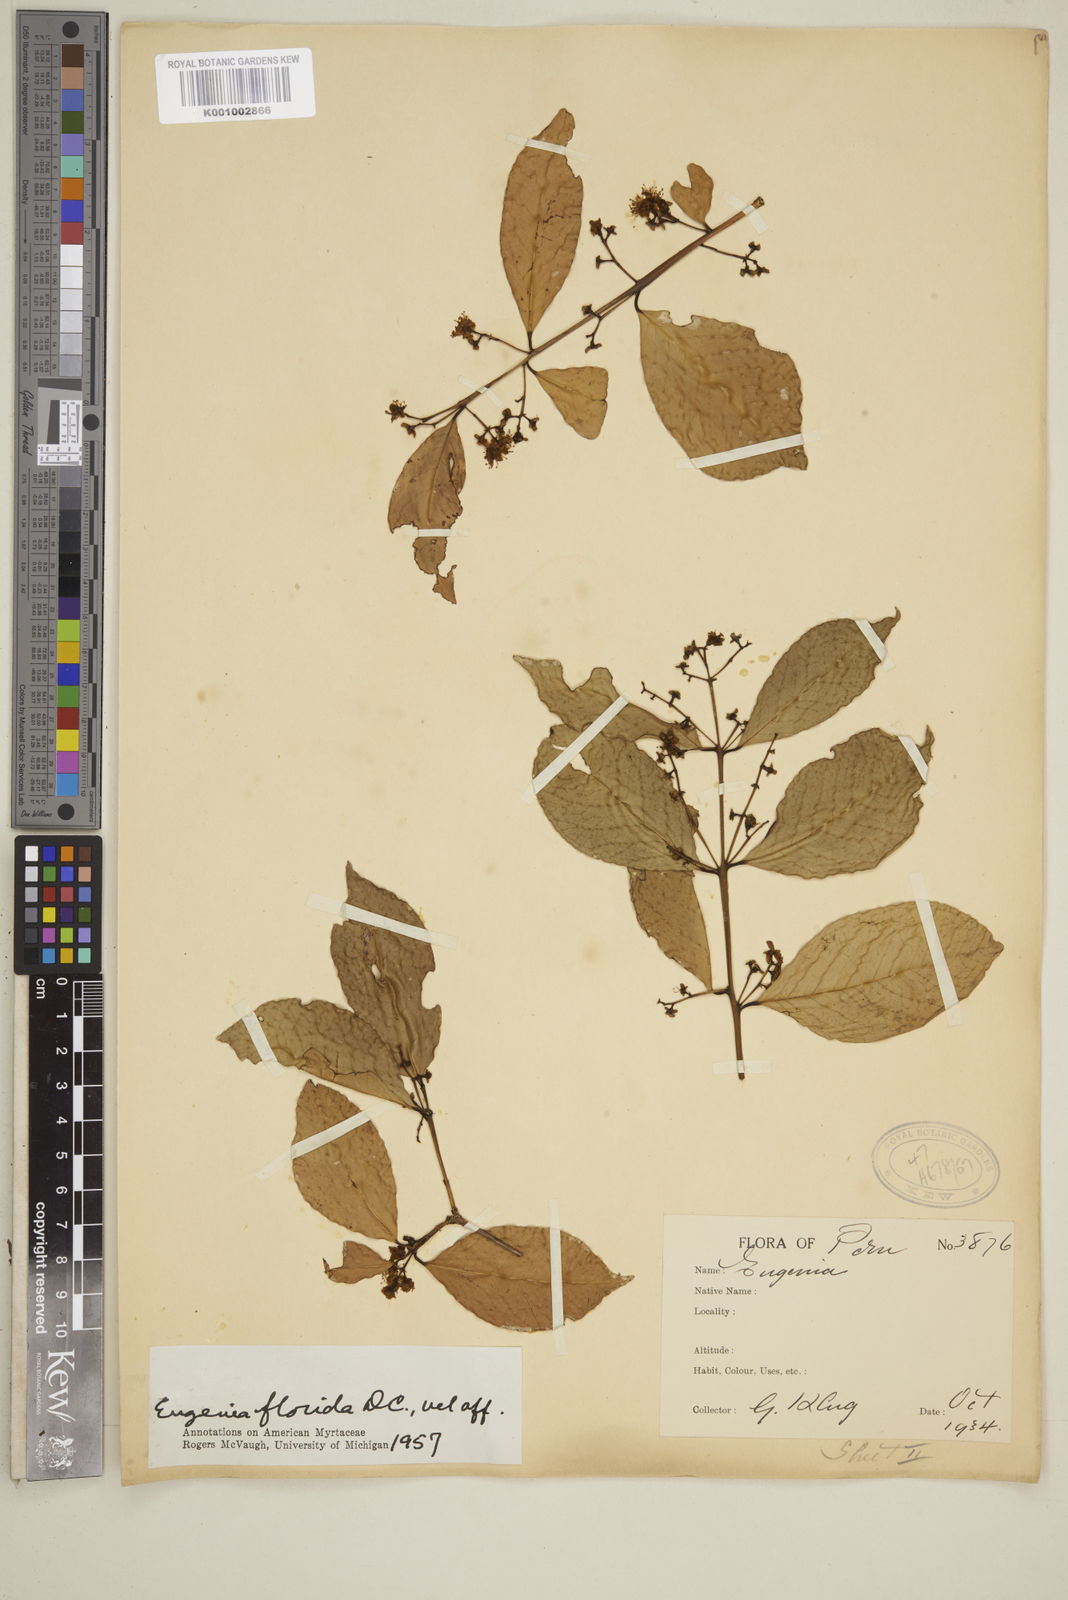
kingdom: Plantae
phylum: Tracheophyta
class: Magnoliopsida
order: Myrtales
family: Myrtaceae
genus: Eugenia
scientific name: Eugenia florida
